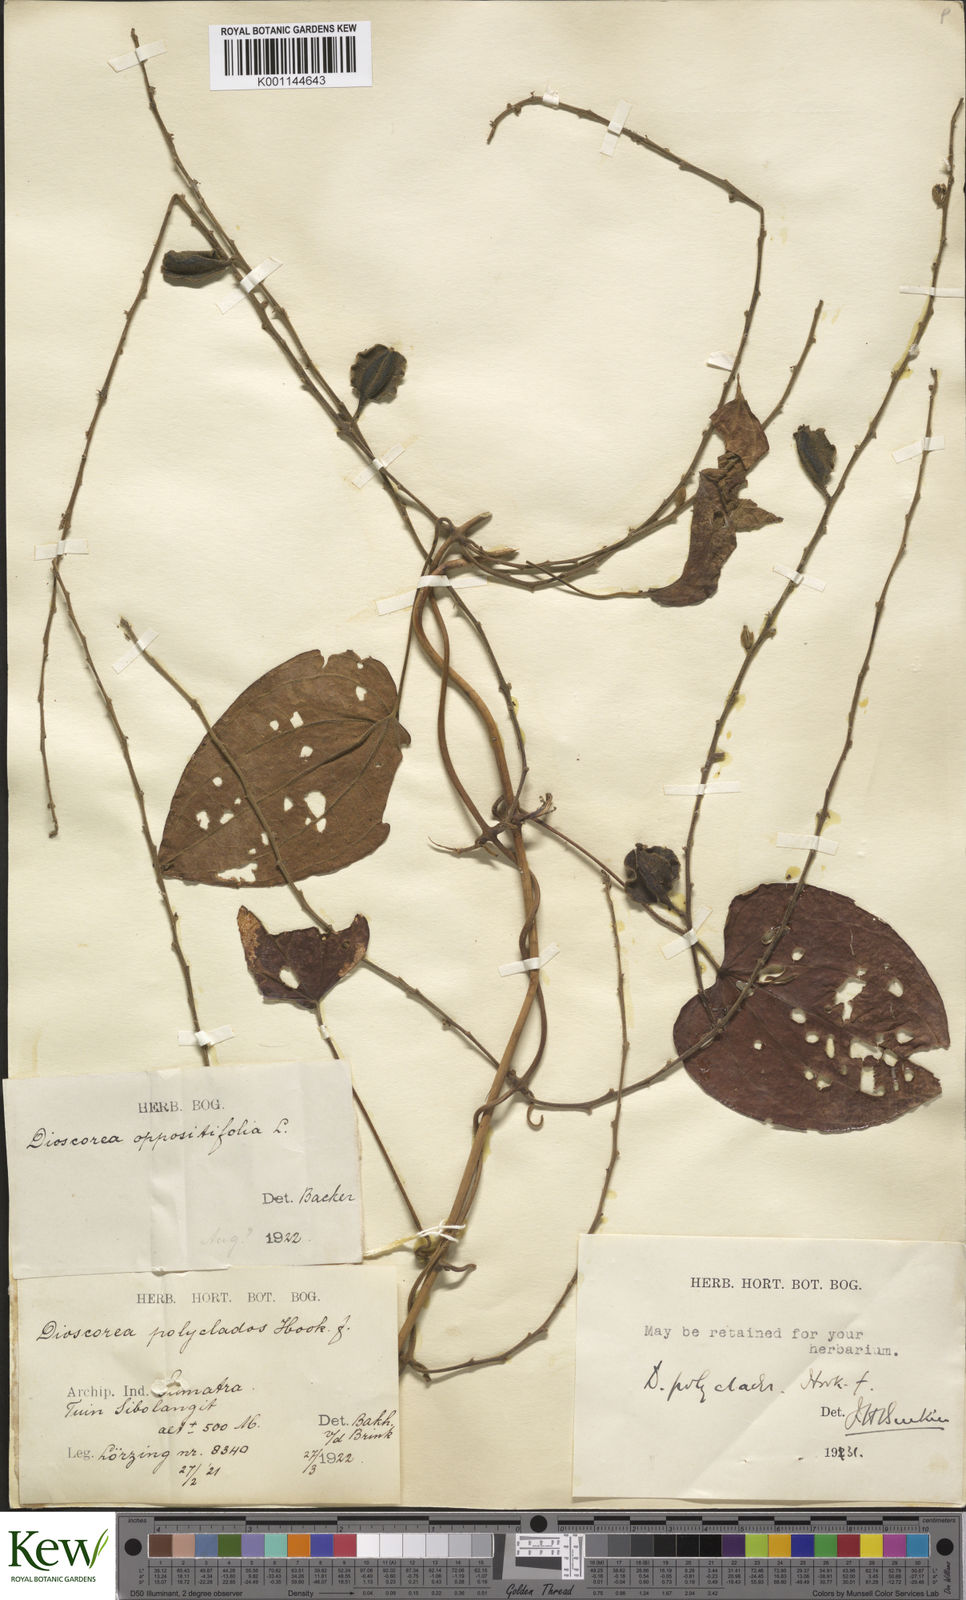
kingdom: Plantae
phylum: Tracheophyta
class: Liliopsida
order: Dioscoreales
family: Dioscoreaceae
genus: Dioscorea
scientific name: Dioscorea polyclados
